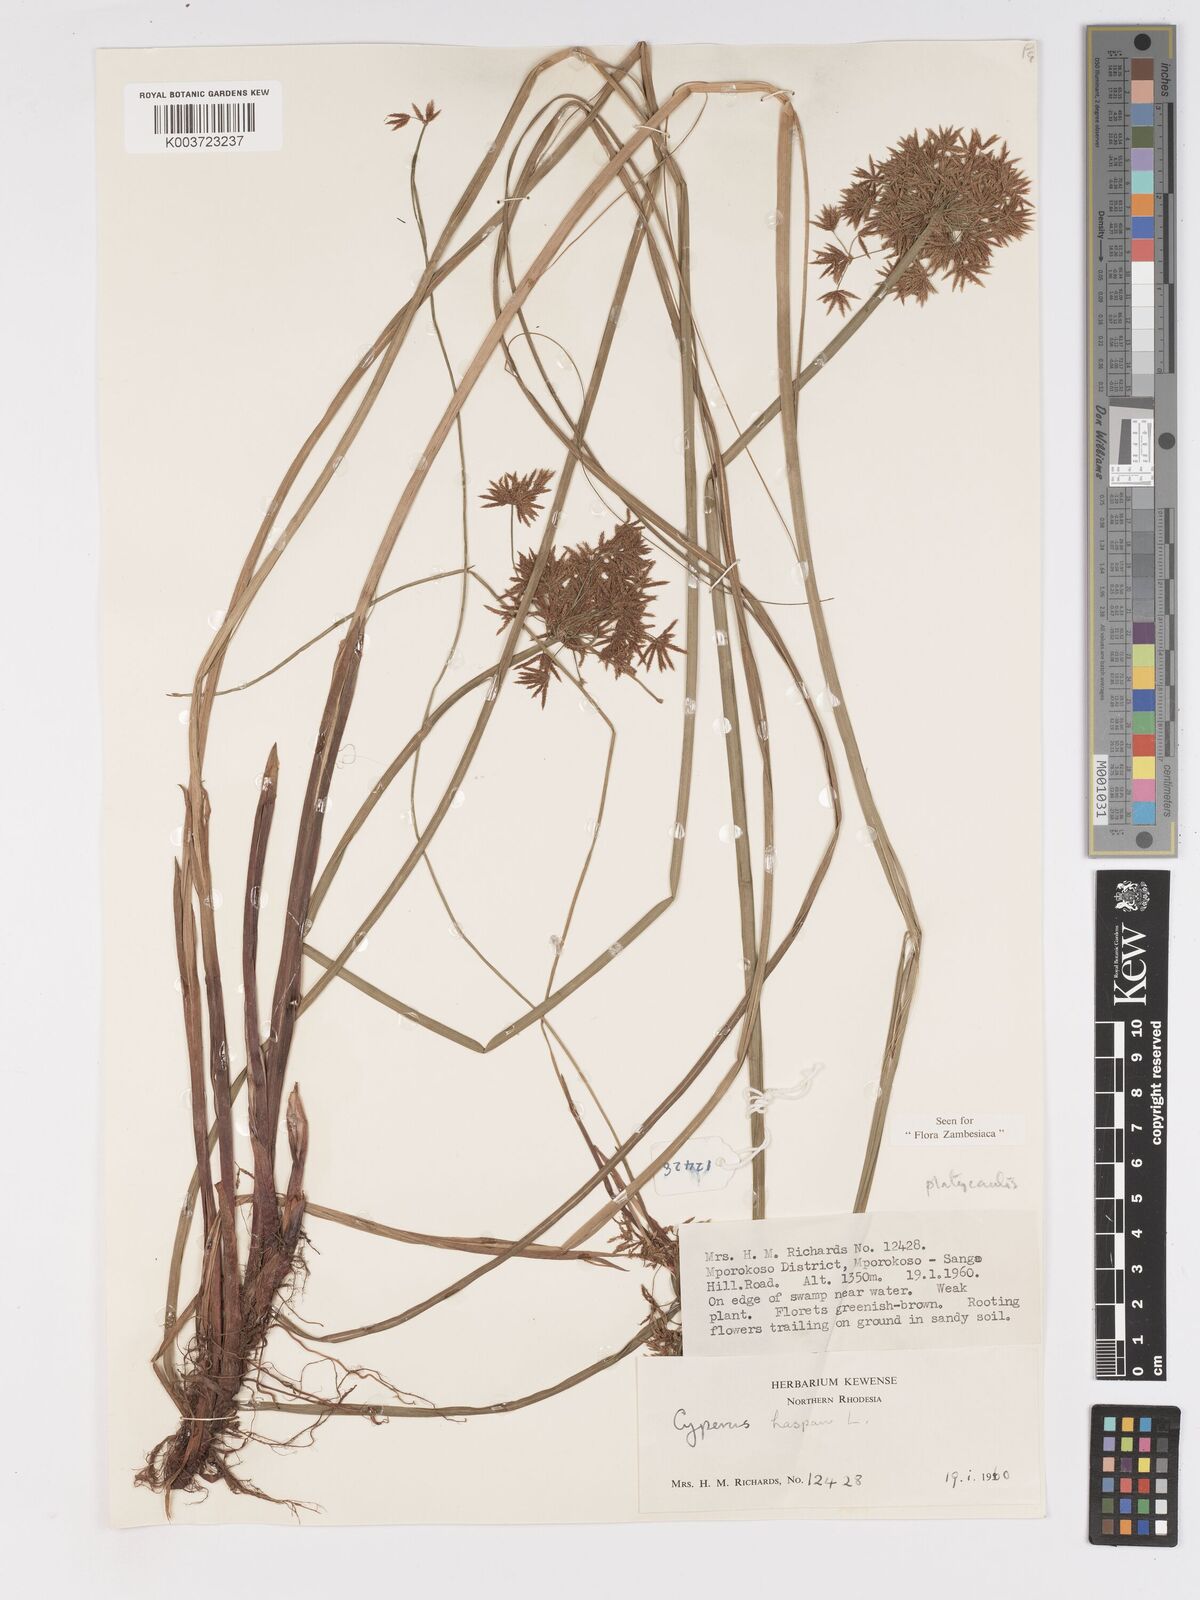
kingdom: Plantae
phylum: Tracheophyta
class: Liliopsida
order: Poales
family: Cyperaceae
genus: Cyperus
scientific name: Cyperus platycaulis
